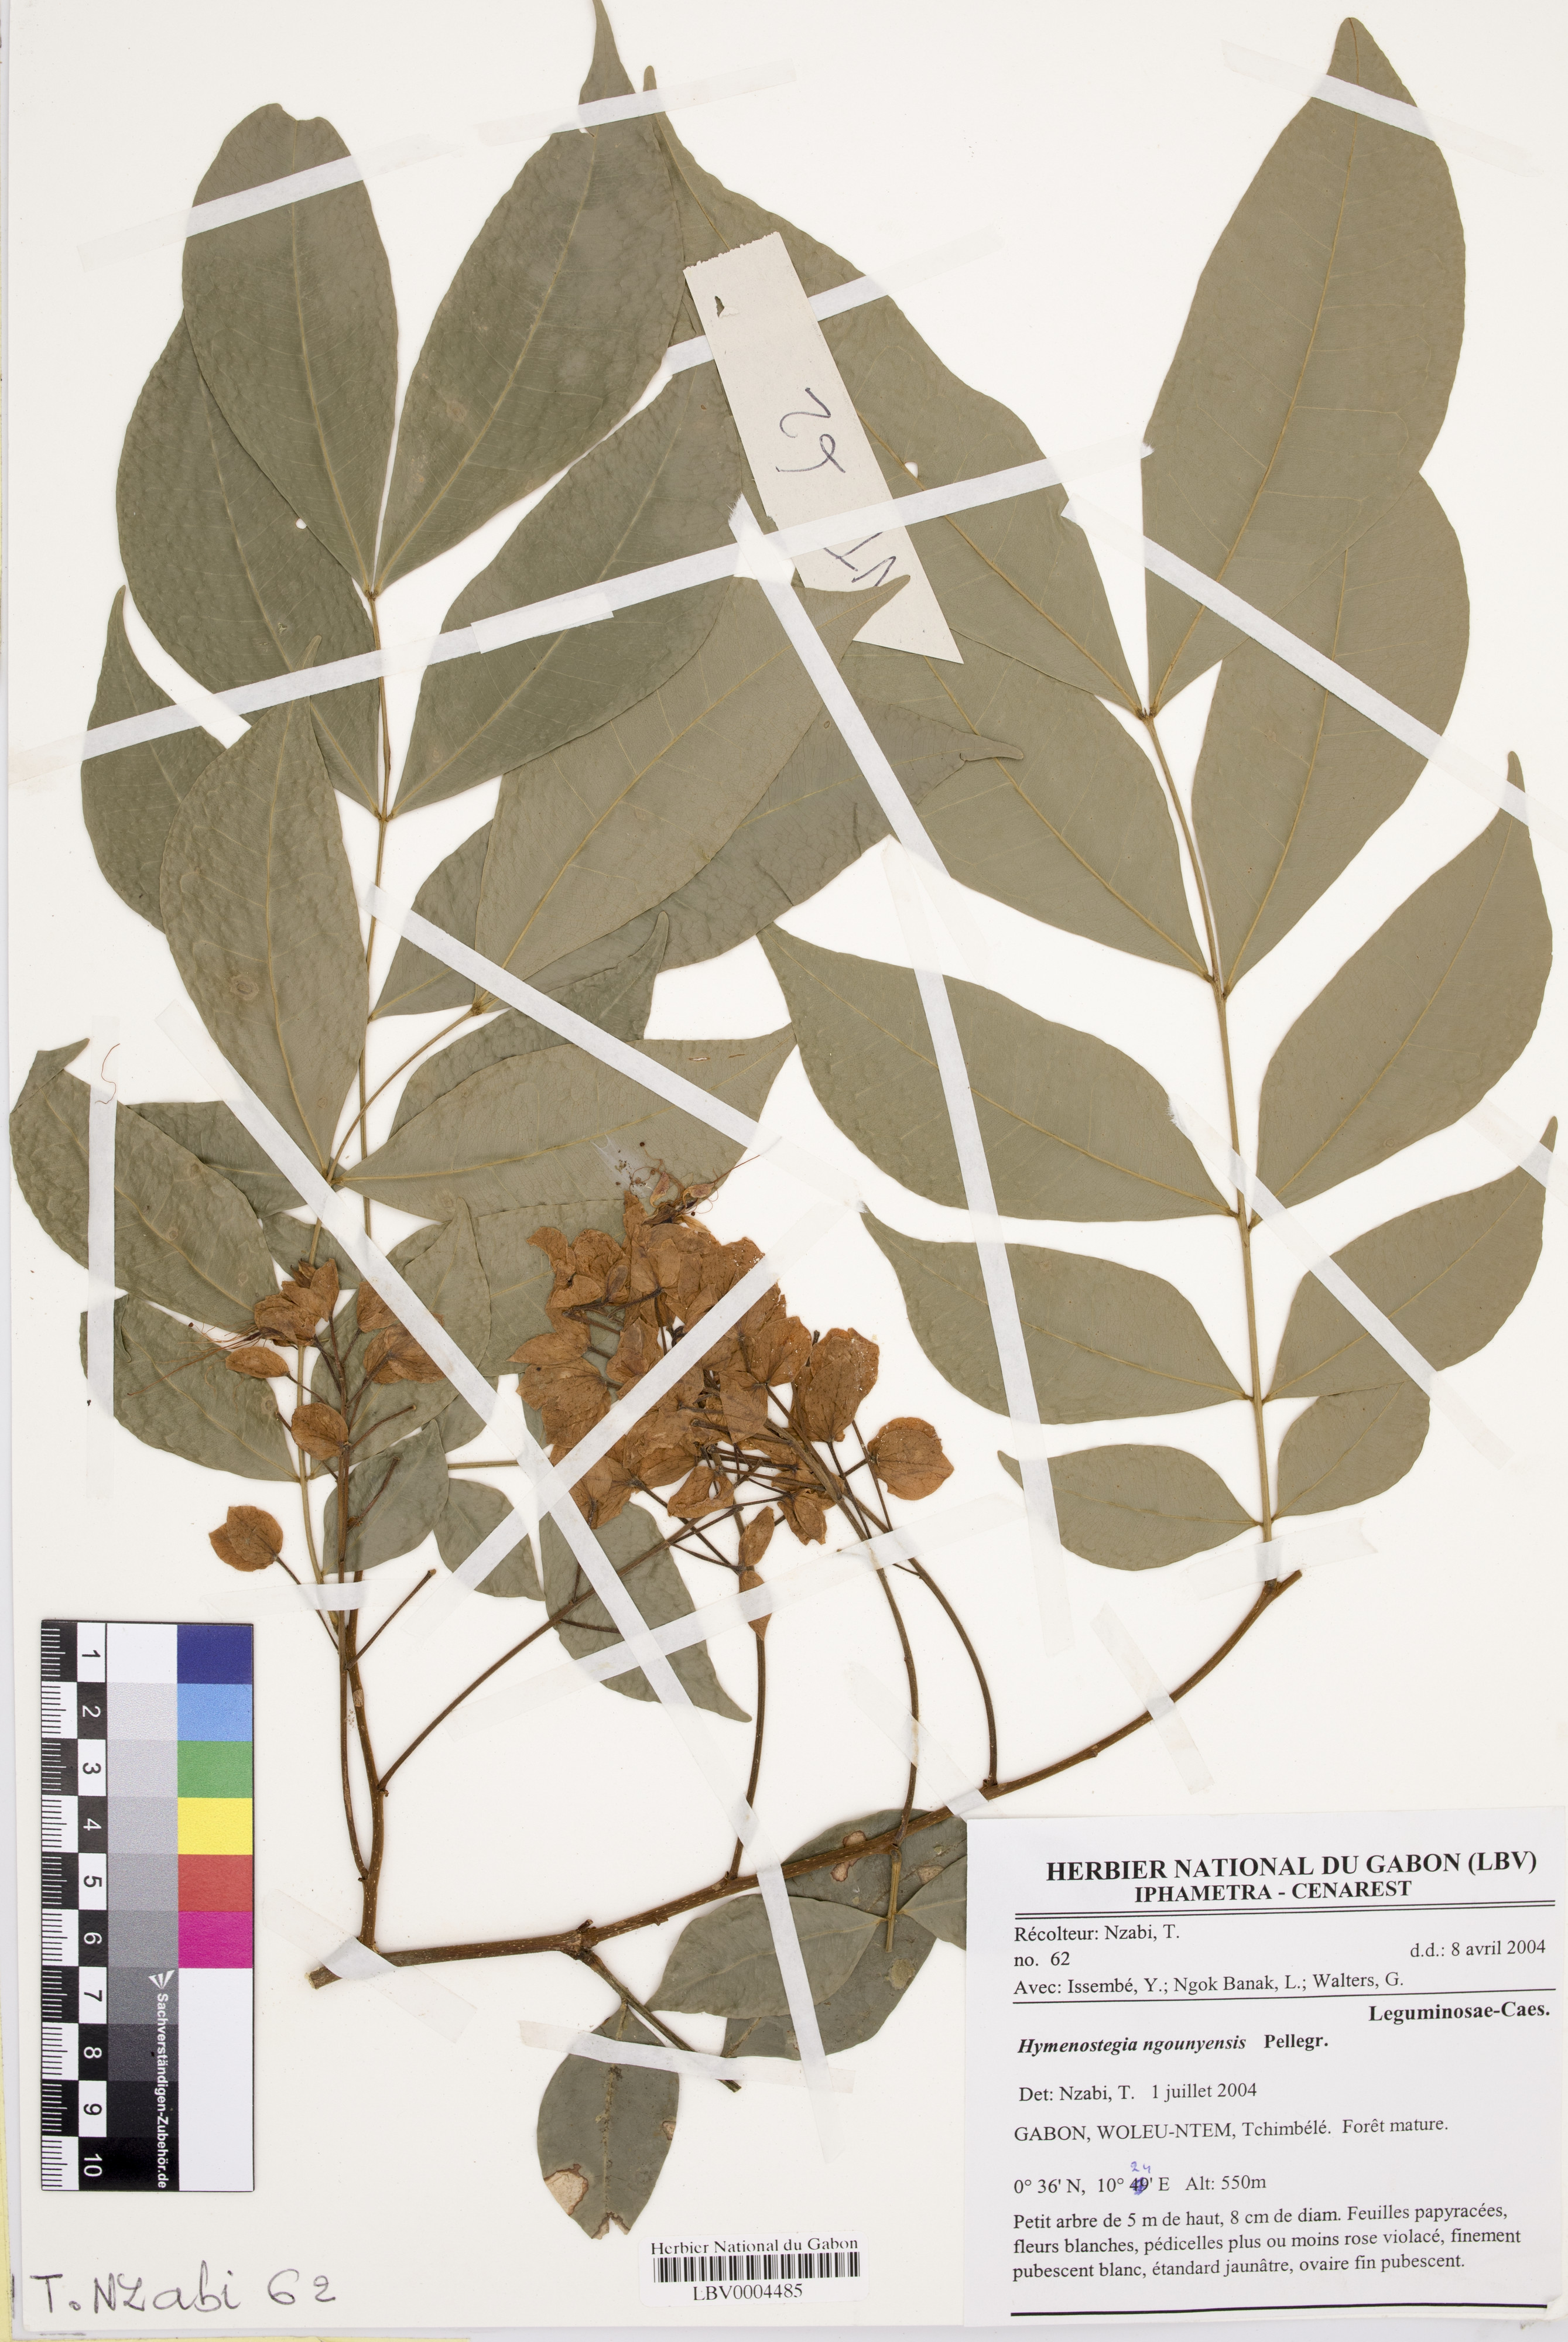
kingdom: Plantae
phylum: Tracheophyta
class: Magnoliopsida
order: Fabales
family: Fabaceae
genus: Gabonius
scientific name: Gabonius ngouniensis
